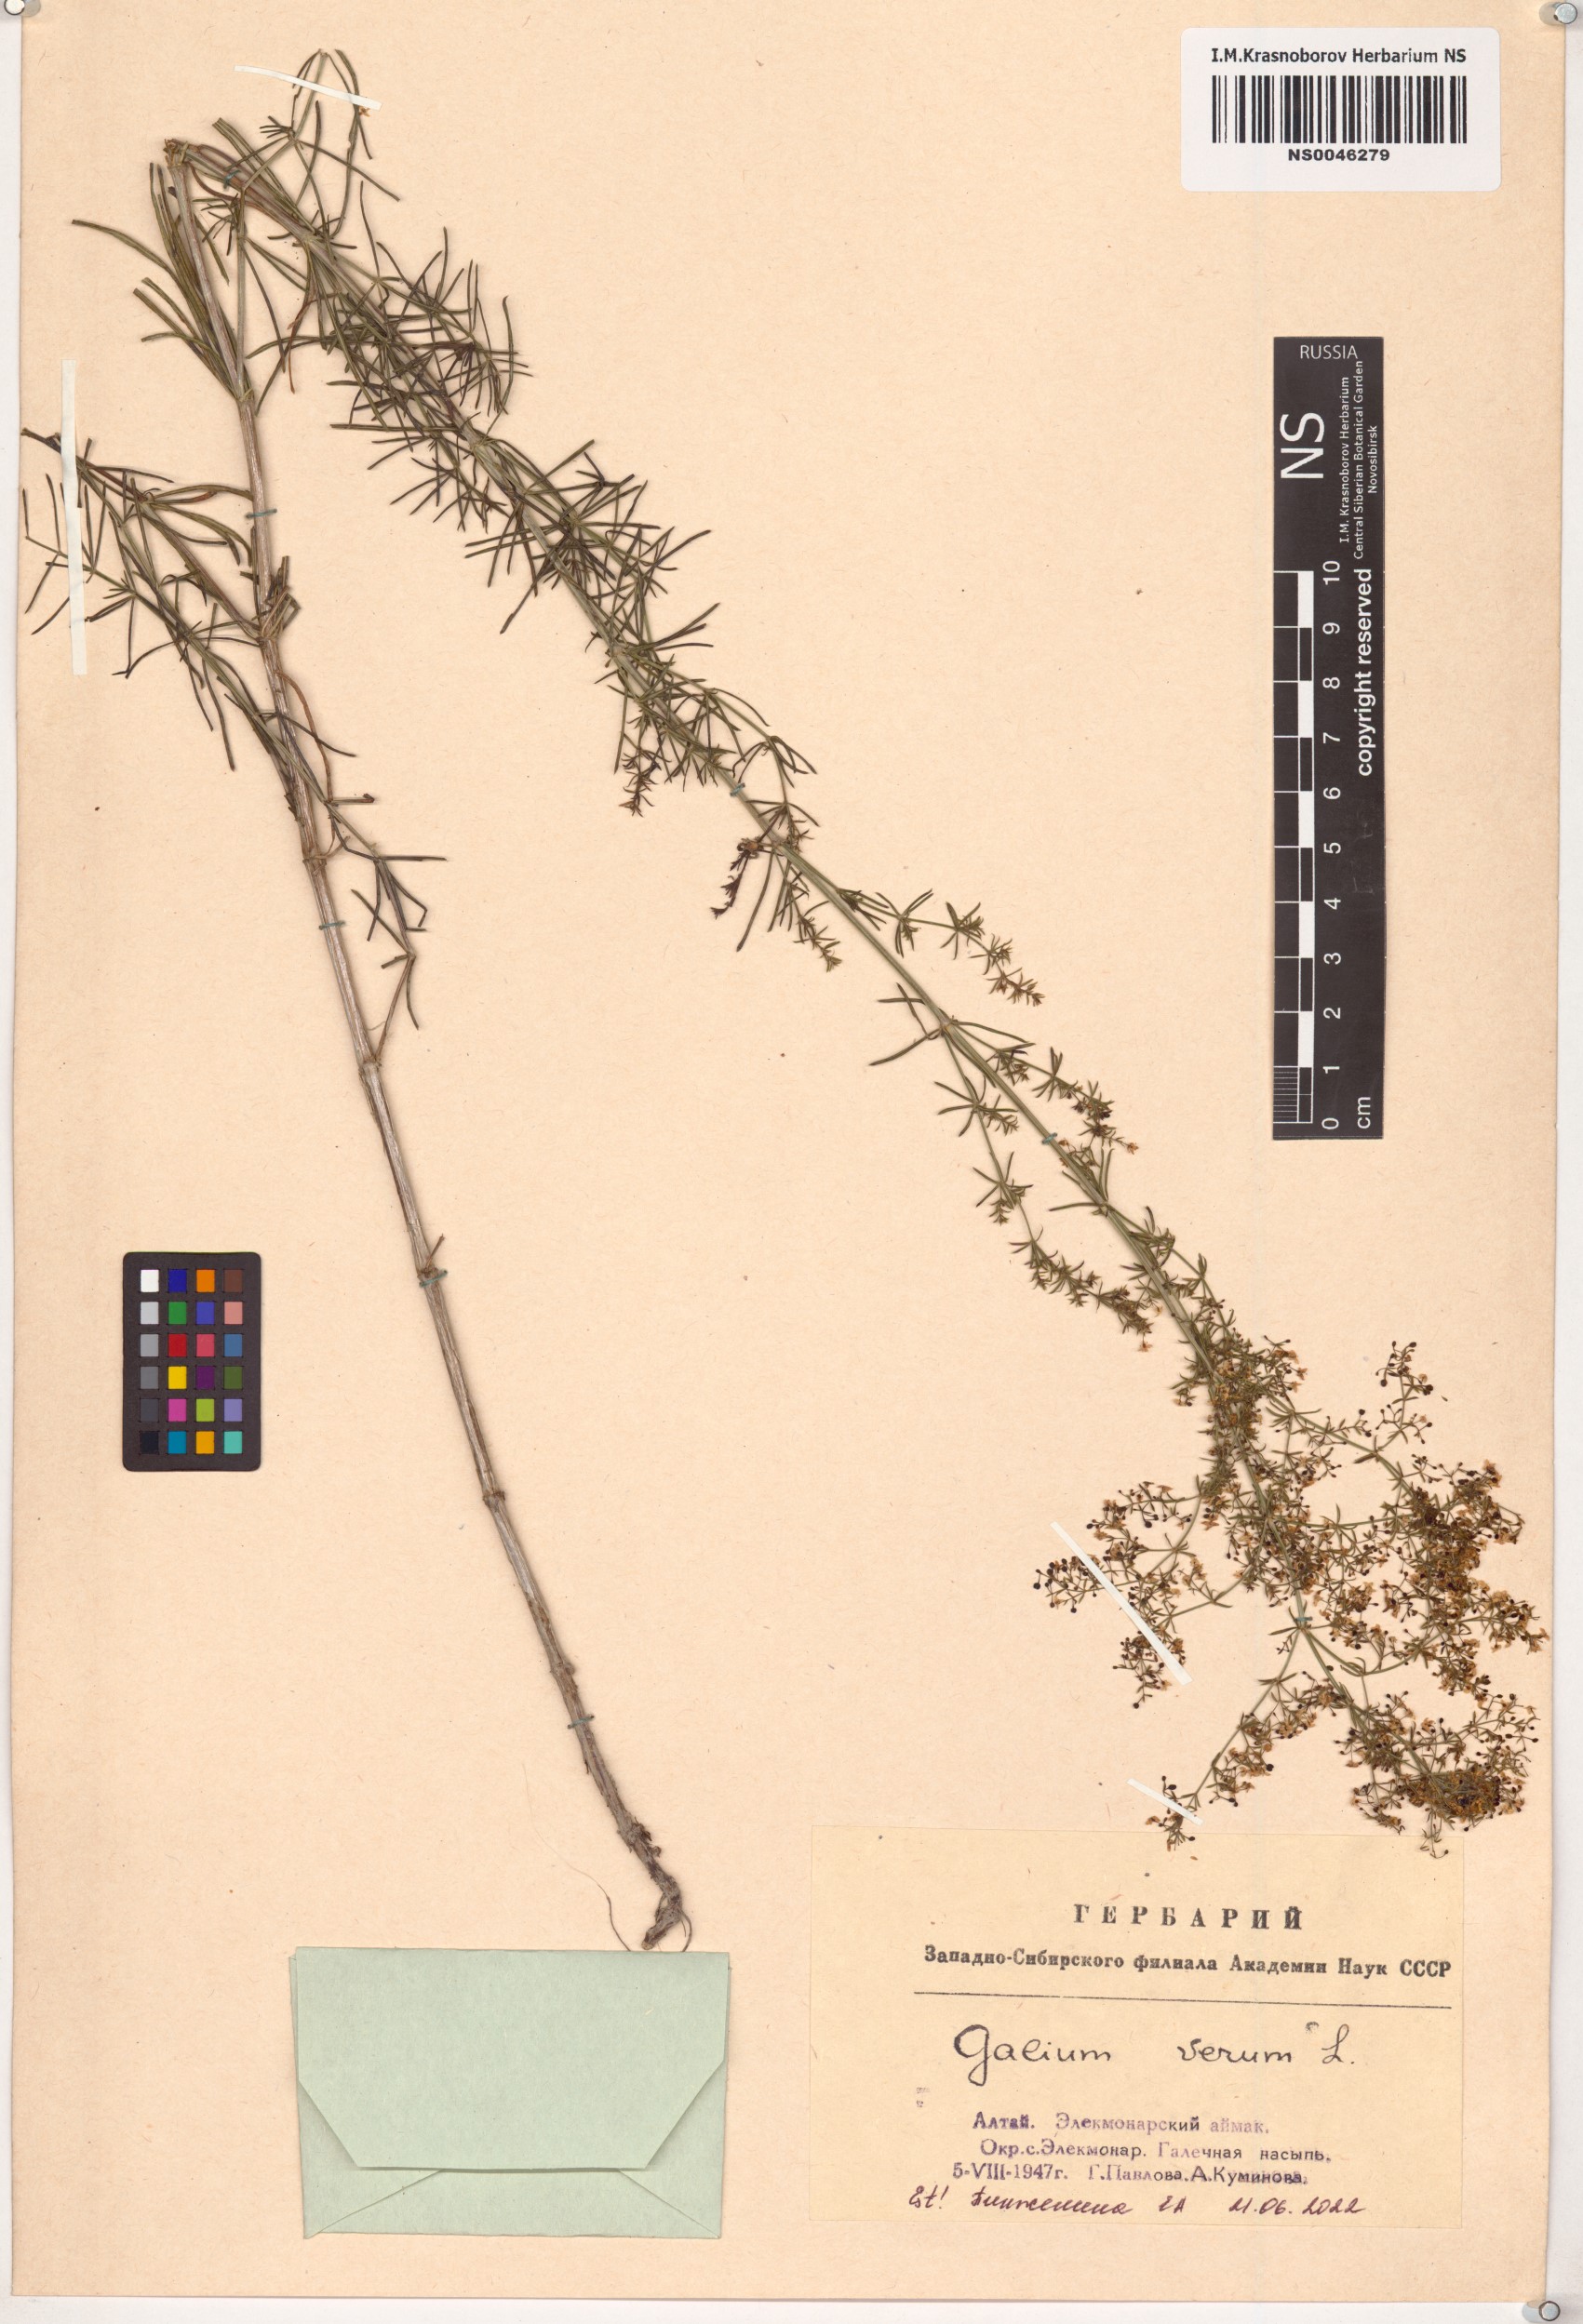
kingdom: Plantae
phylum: Tracheophyta
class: Magnoliopsida
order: Gentianales
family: Rubiaceae
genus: Galium
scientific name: Galium verum
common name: Lady's bedstraw
